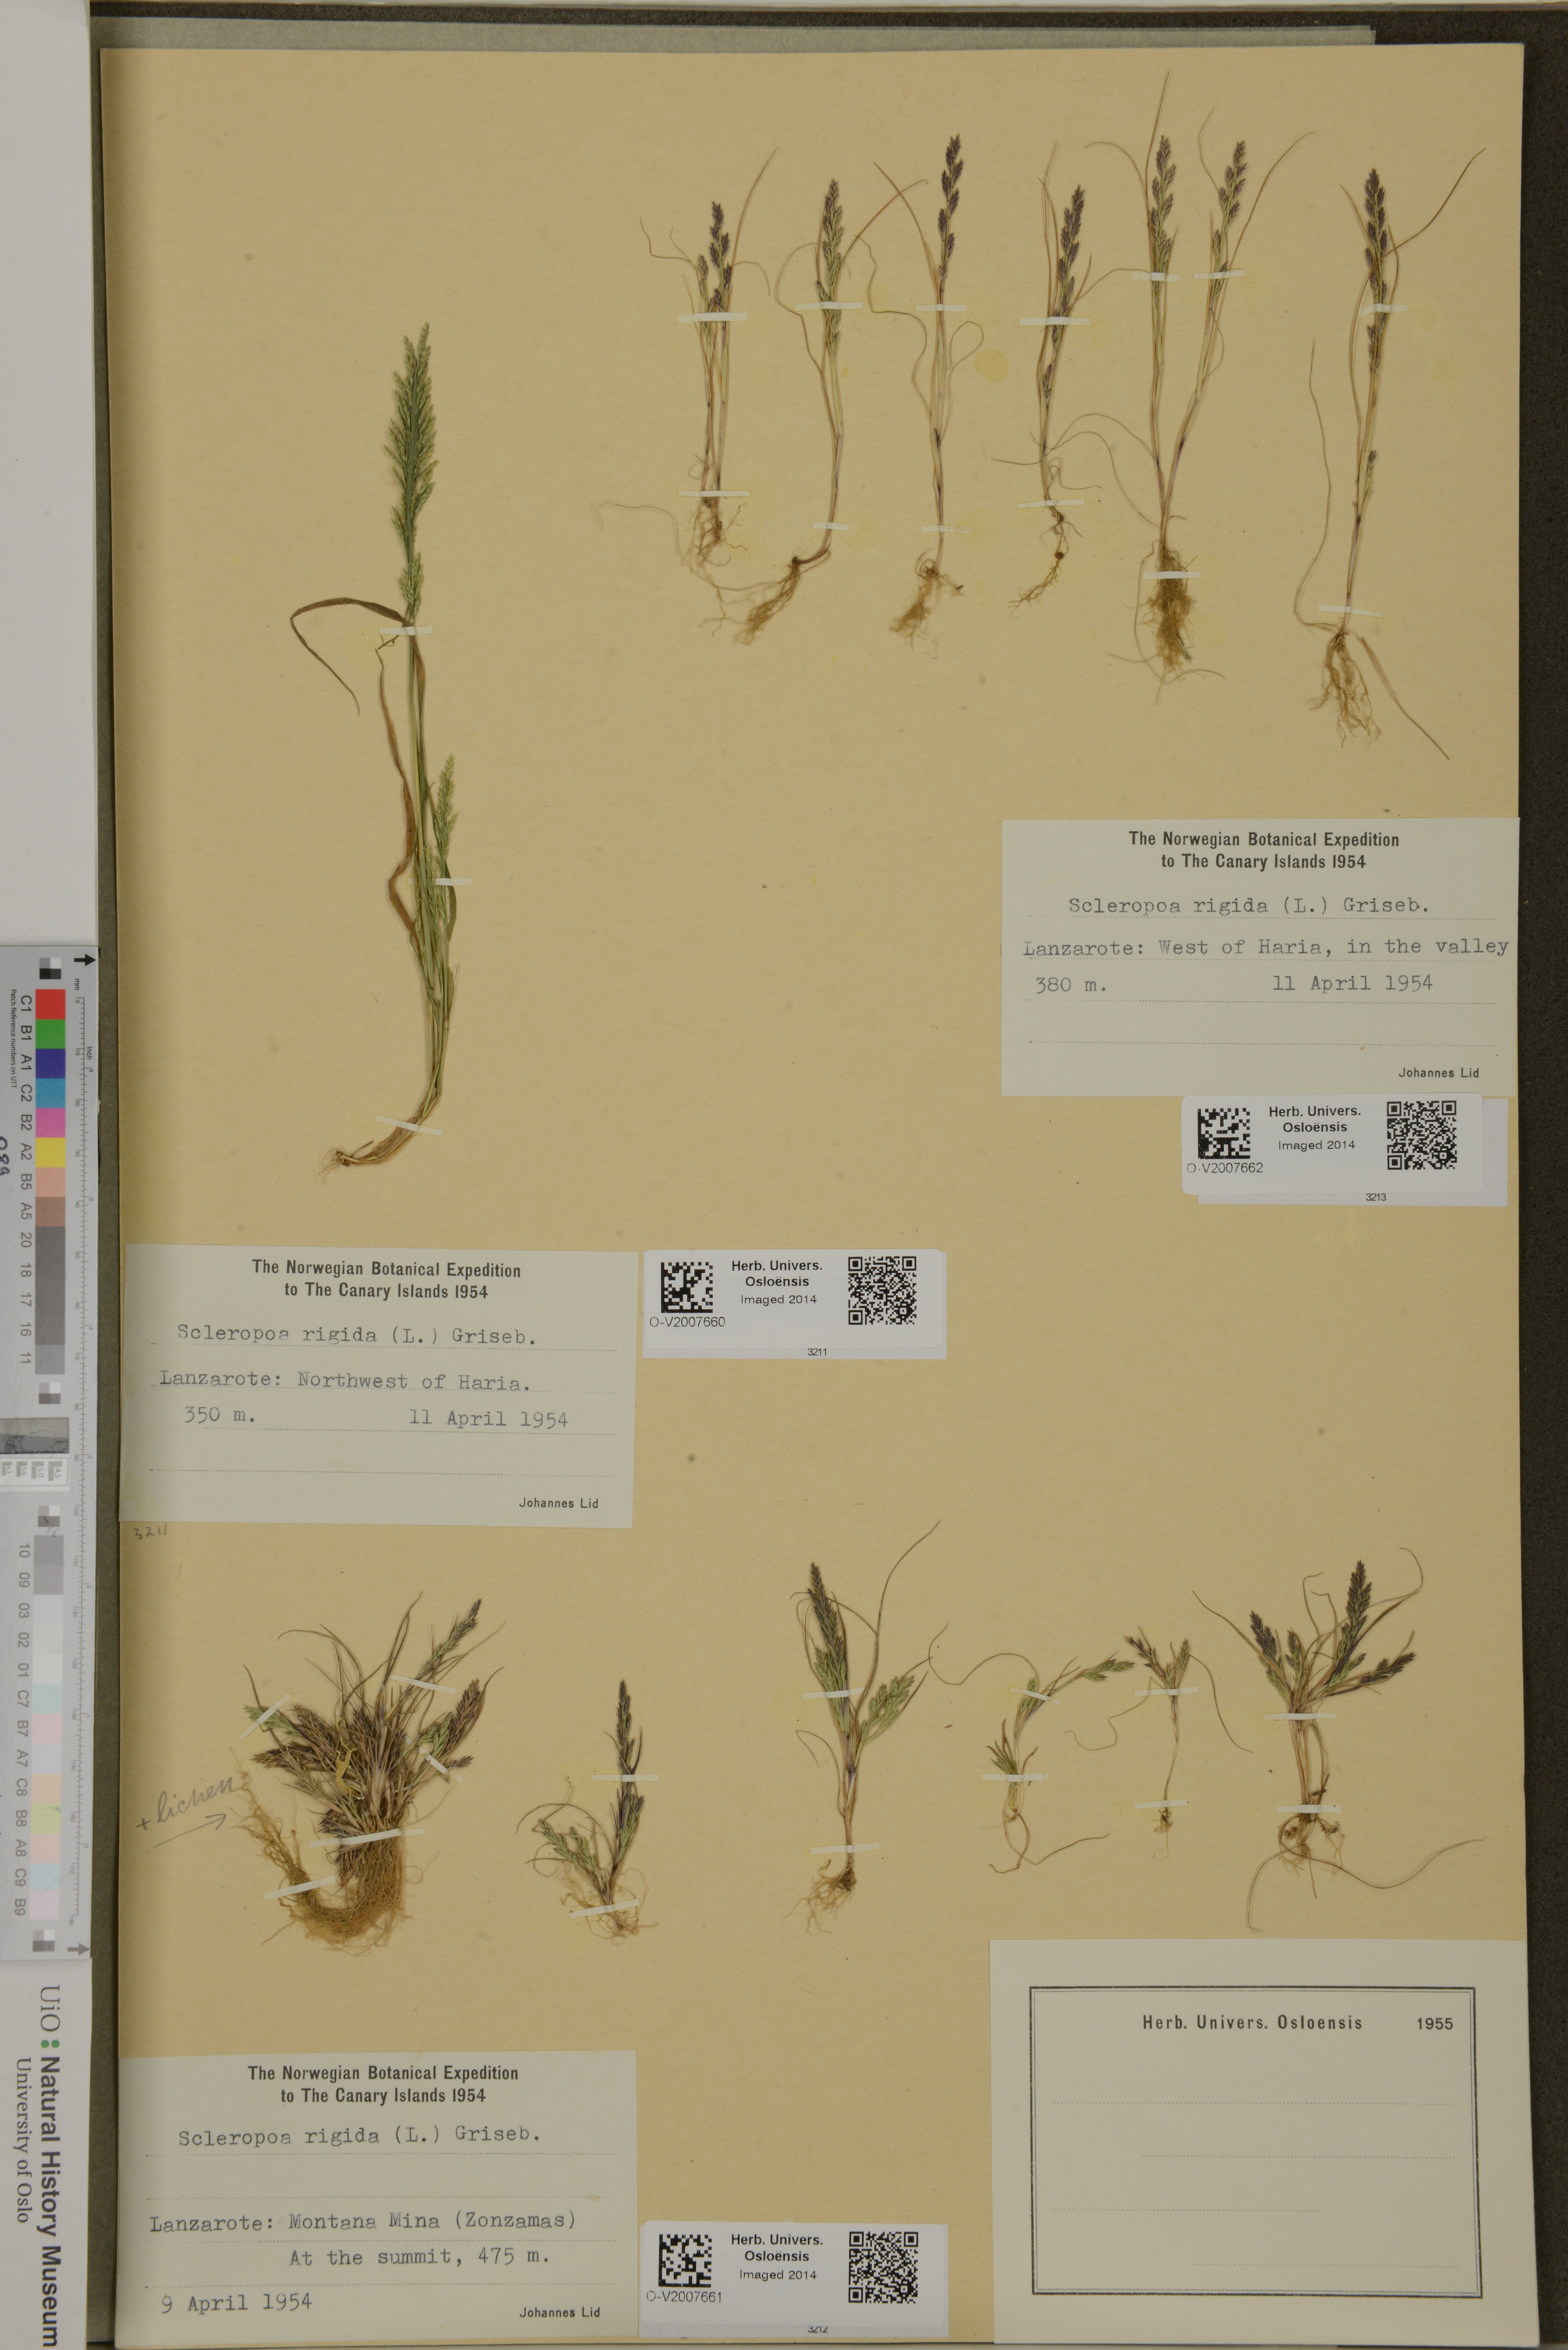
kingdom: Plantae
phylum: Tracheophyta
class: Liliopsida
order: Poales
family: Poaceae
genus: Catapodium
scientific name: Catapodium rigidum
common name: Fern-grass
